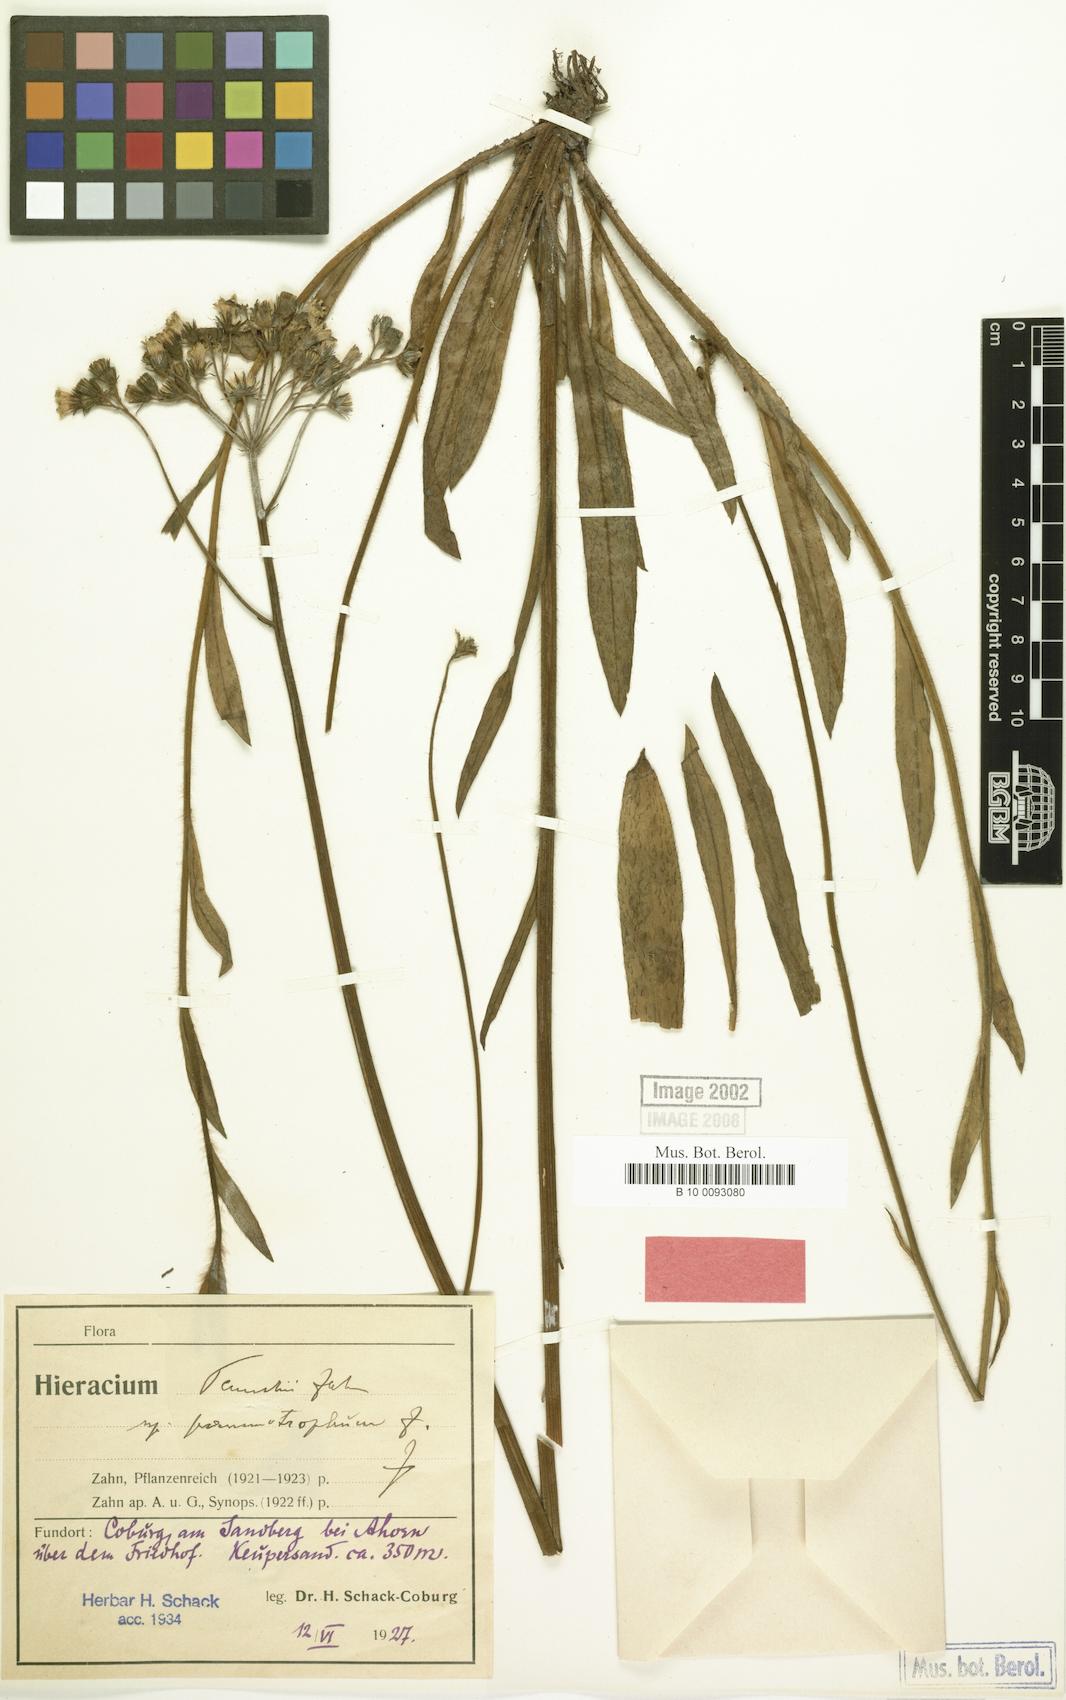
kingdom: Plantae
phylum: Tracheophyta
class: Magnoliopsida
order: Asterales
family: Asteraceae
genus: Pilosella
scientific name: Pilosella densiflora
